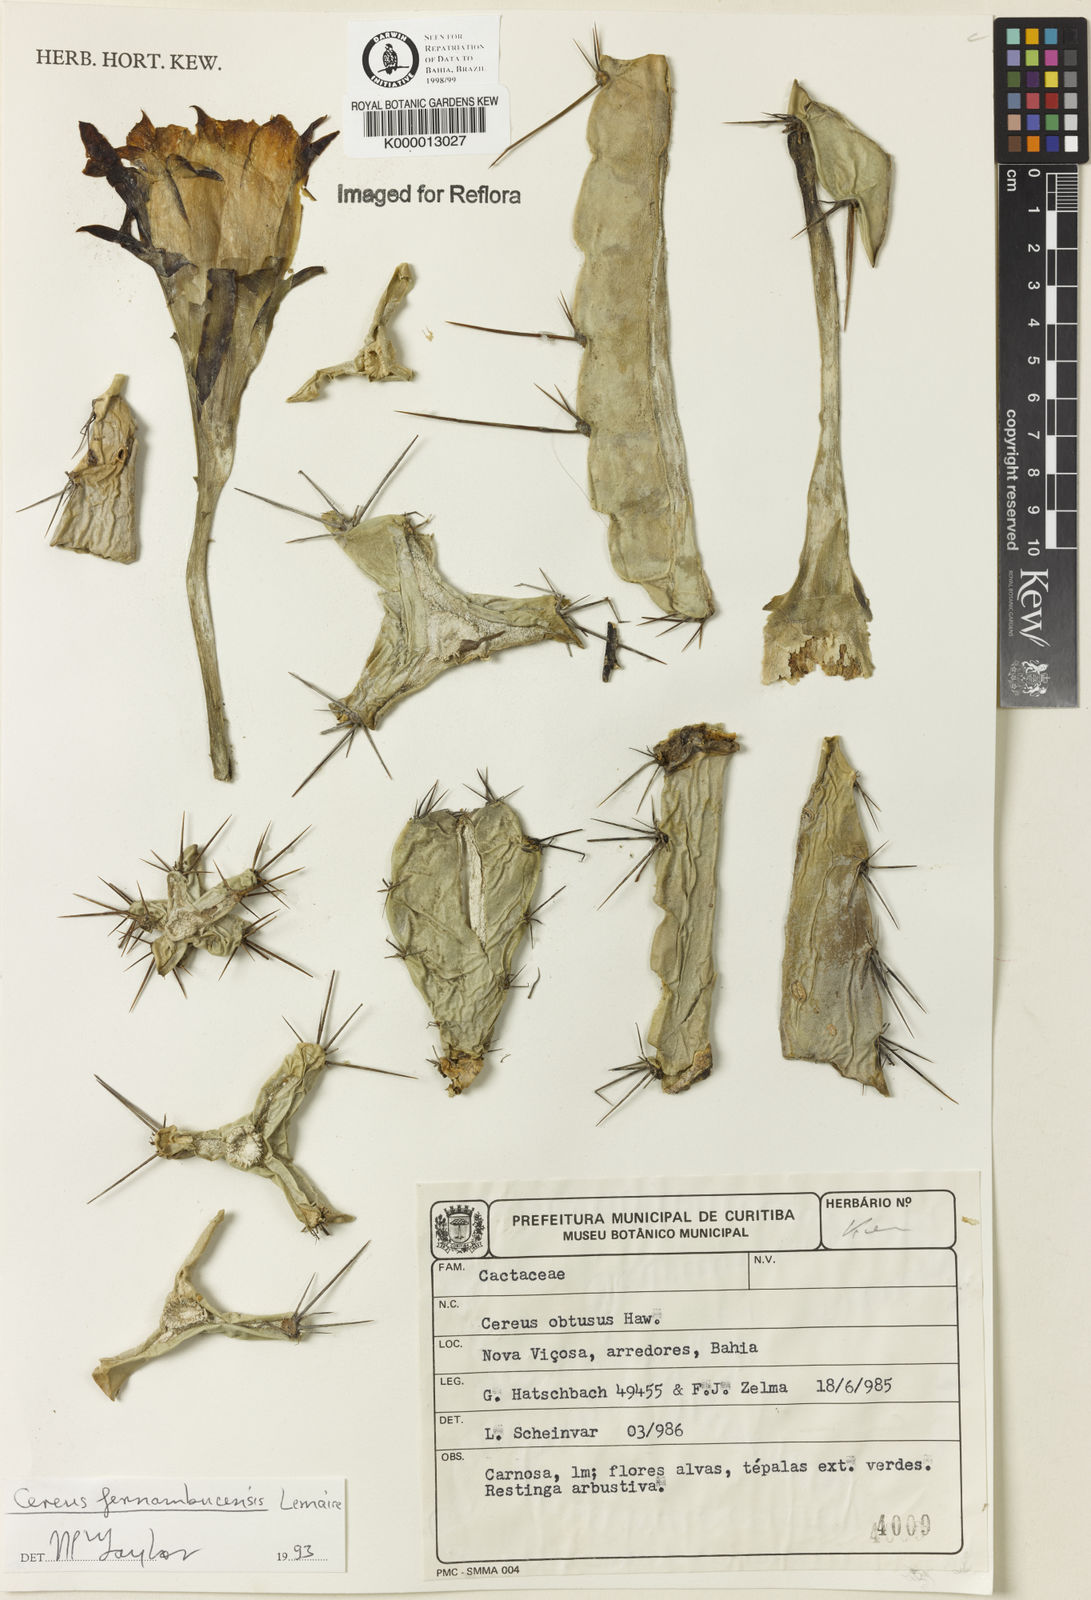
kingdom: Plantae
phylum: Tracheophyta
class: Magnoliopsida
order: Caryophyllales
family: Cactaceae
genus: Cereus
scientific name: Cereus fernambucensis
